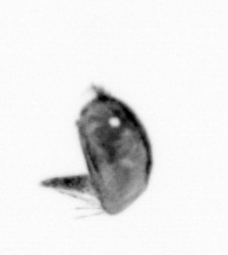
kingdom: Animalia
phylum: Arthropoda
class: Copepoda
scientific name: Copepoda
